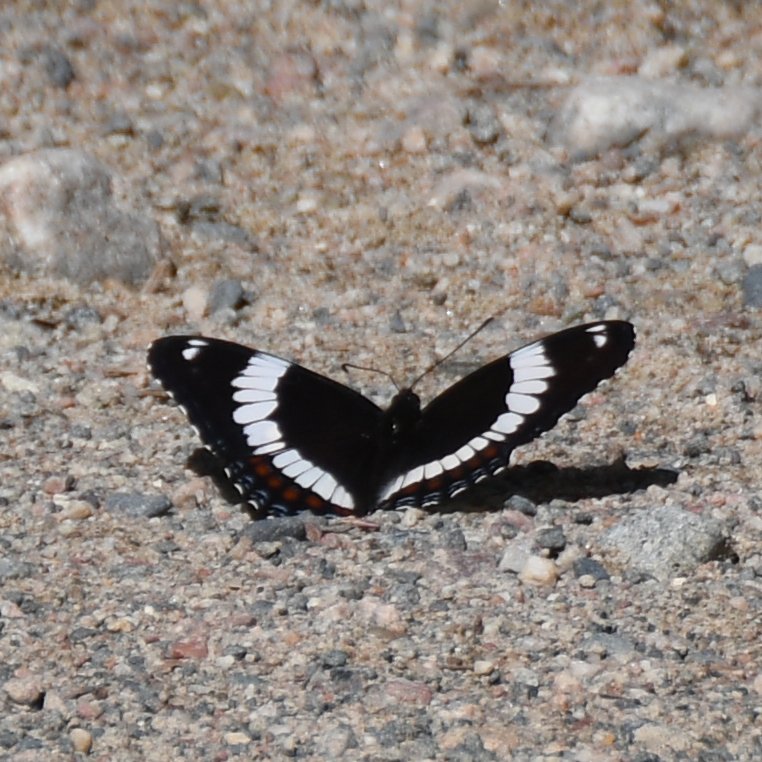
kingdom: Animalia
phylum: Arthropoda
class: Insecta
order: Lepidoptera
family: Nymphalidae
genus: Limenitis
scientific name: Limenitis arthemis
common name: Red-spotted Admiral
